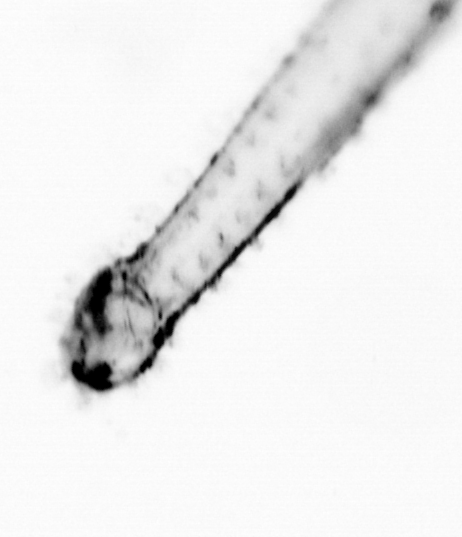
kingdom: Animalia
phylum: Chaetognatha
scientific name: Chaetognatha
